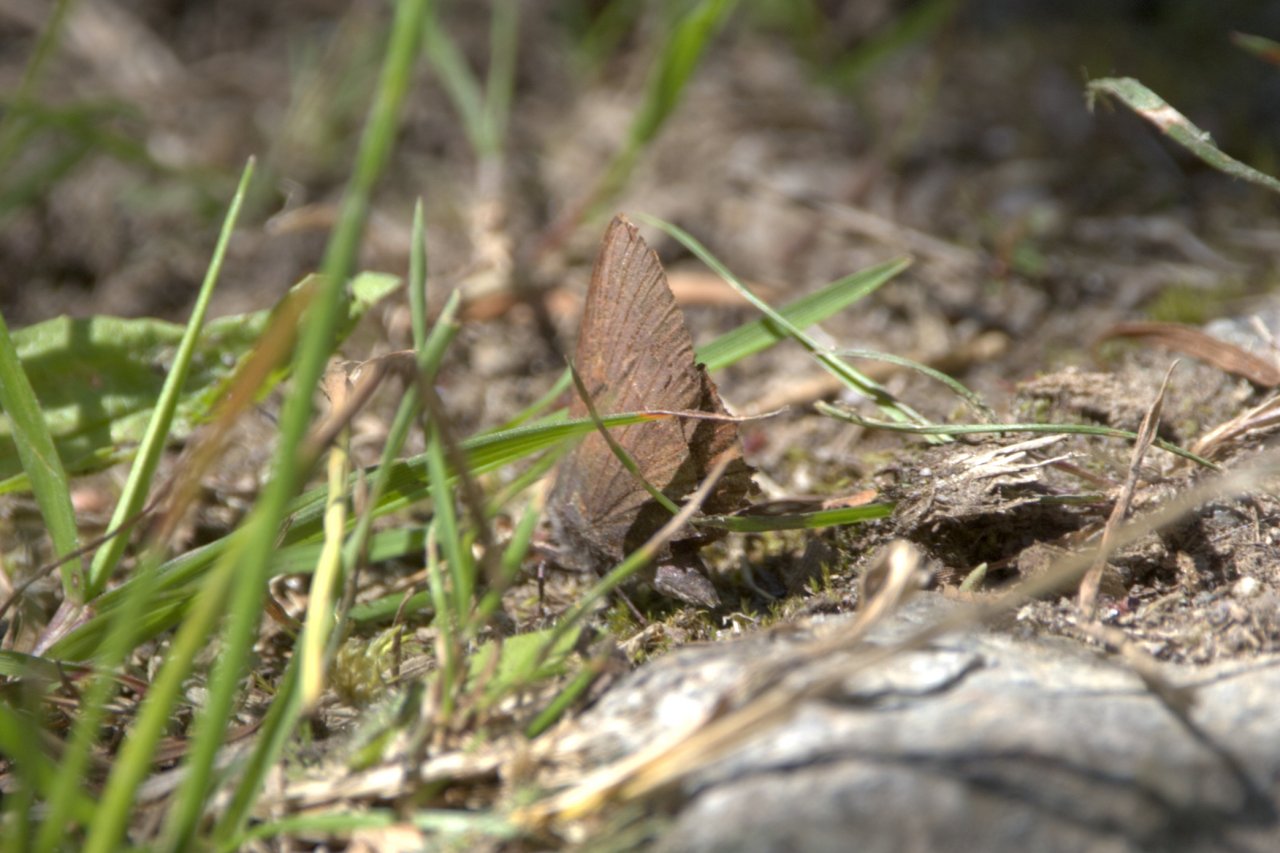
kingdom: Animalia
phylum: Arthropoda
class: Insecta
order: Lepidoptera
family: Lycaenidae
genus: Mitoura
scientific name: Mitoura gryneus
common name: Juniper Hairstreak
